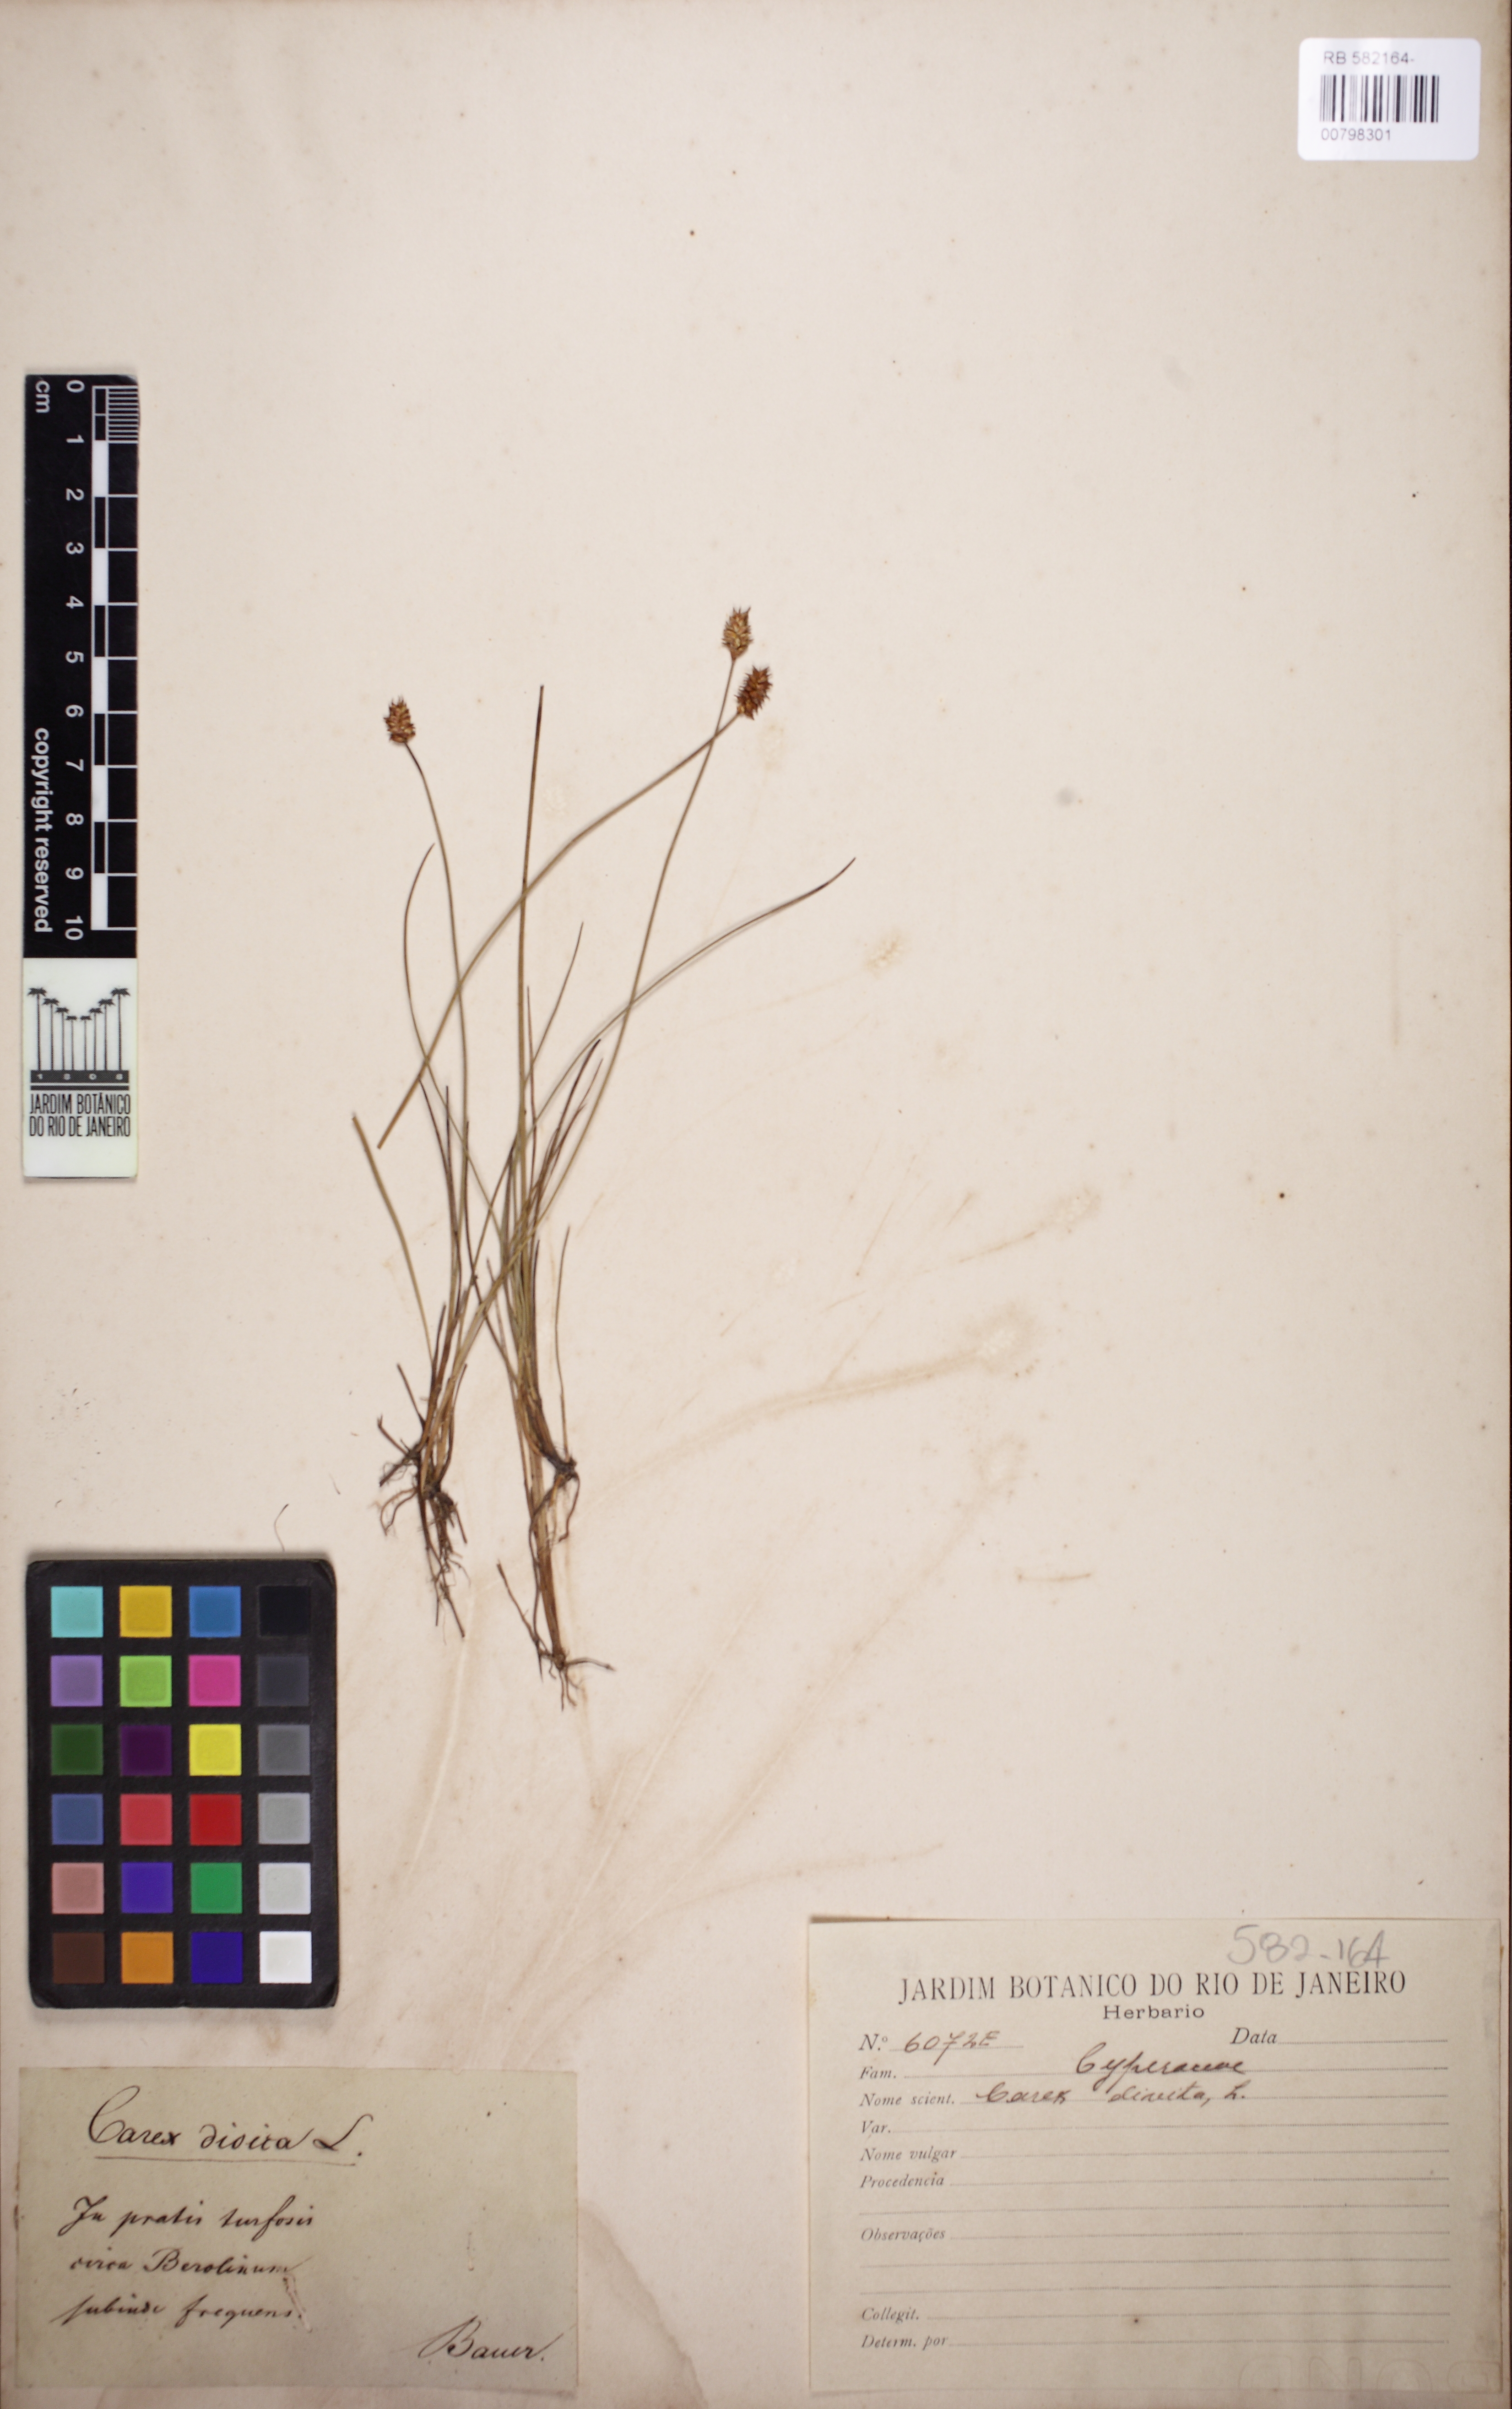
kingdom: Plantae
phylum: Tracheophyta
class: Liliopsida
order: Poales
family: Cyperaceae
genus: Carex
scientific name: Carex
